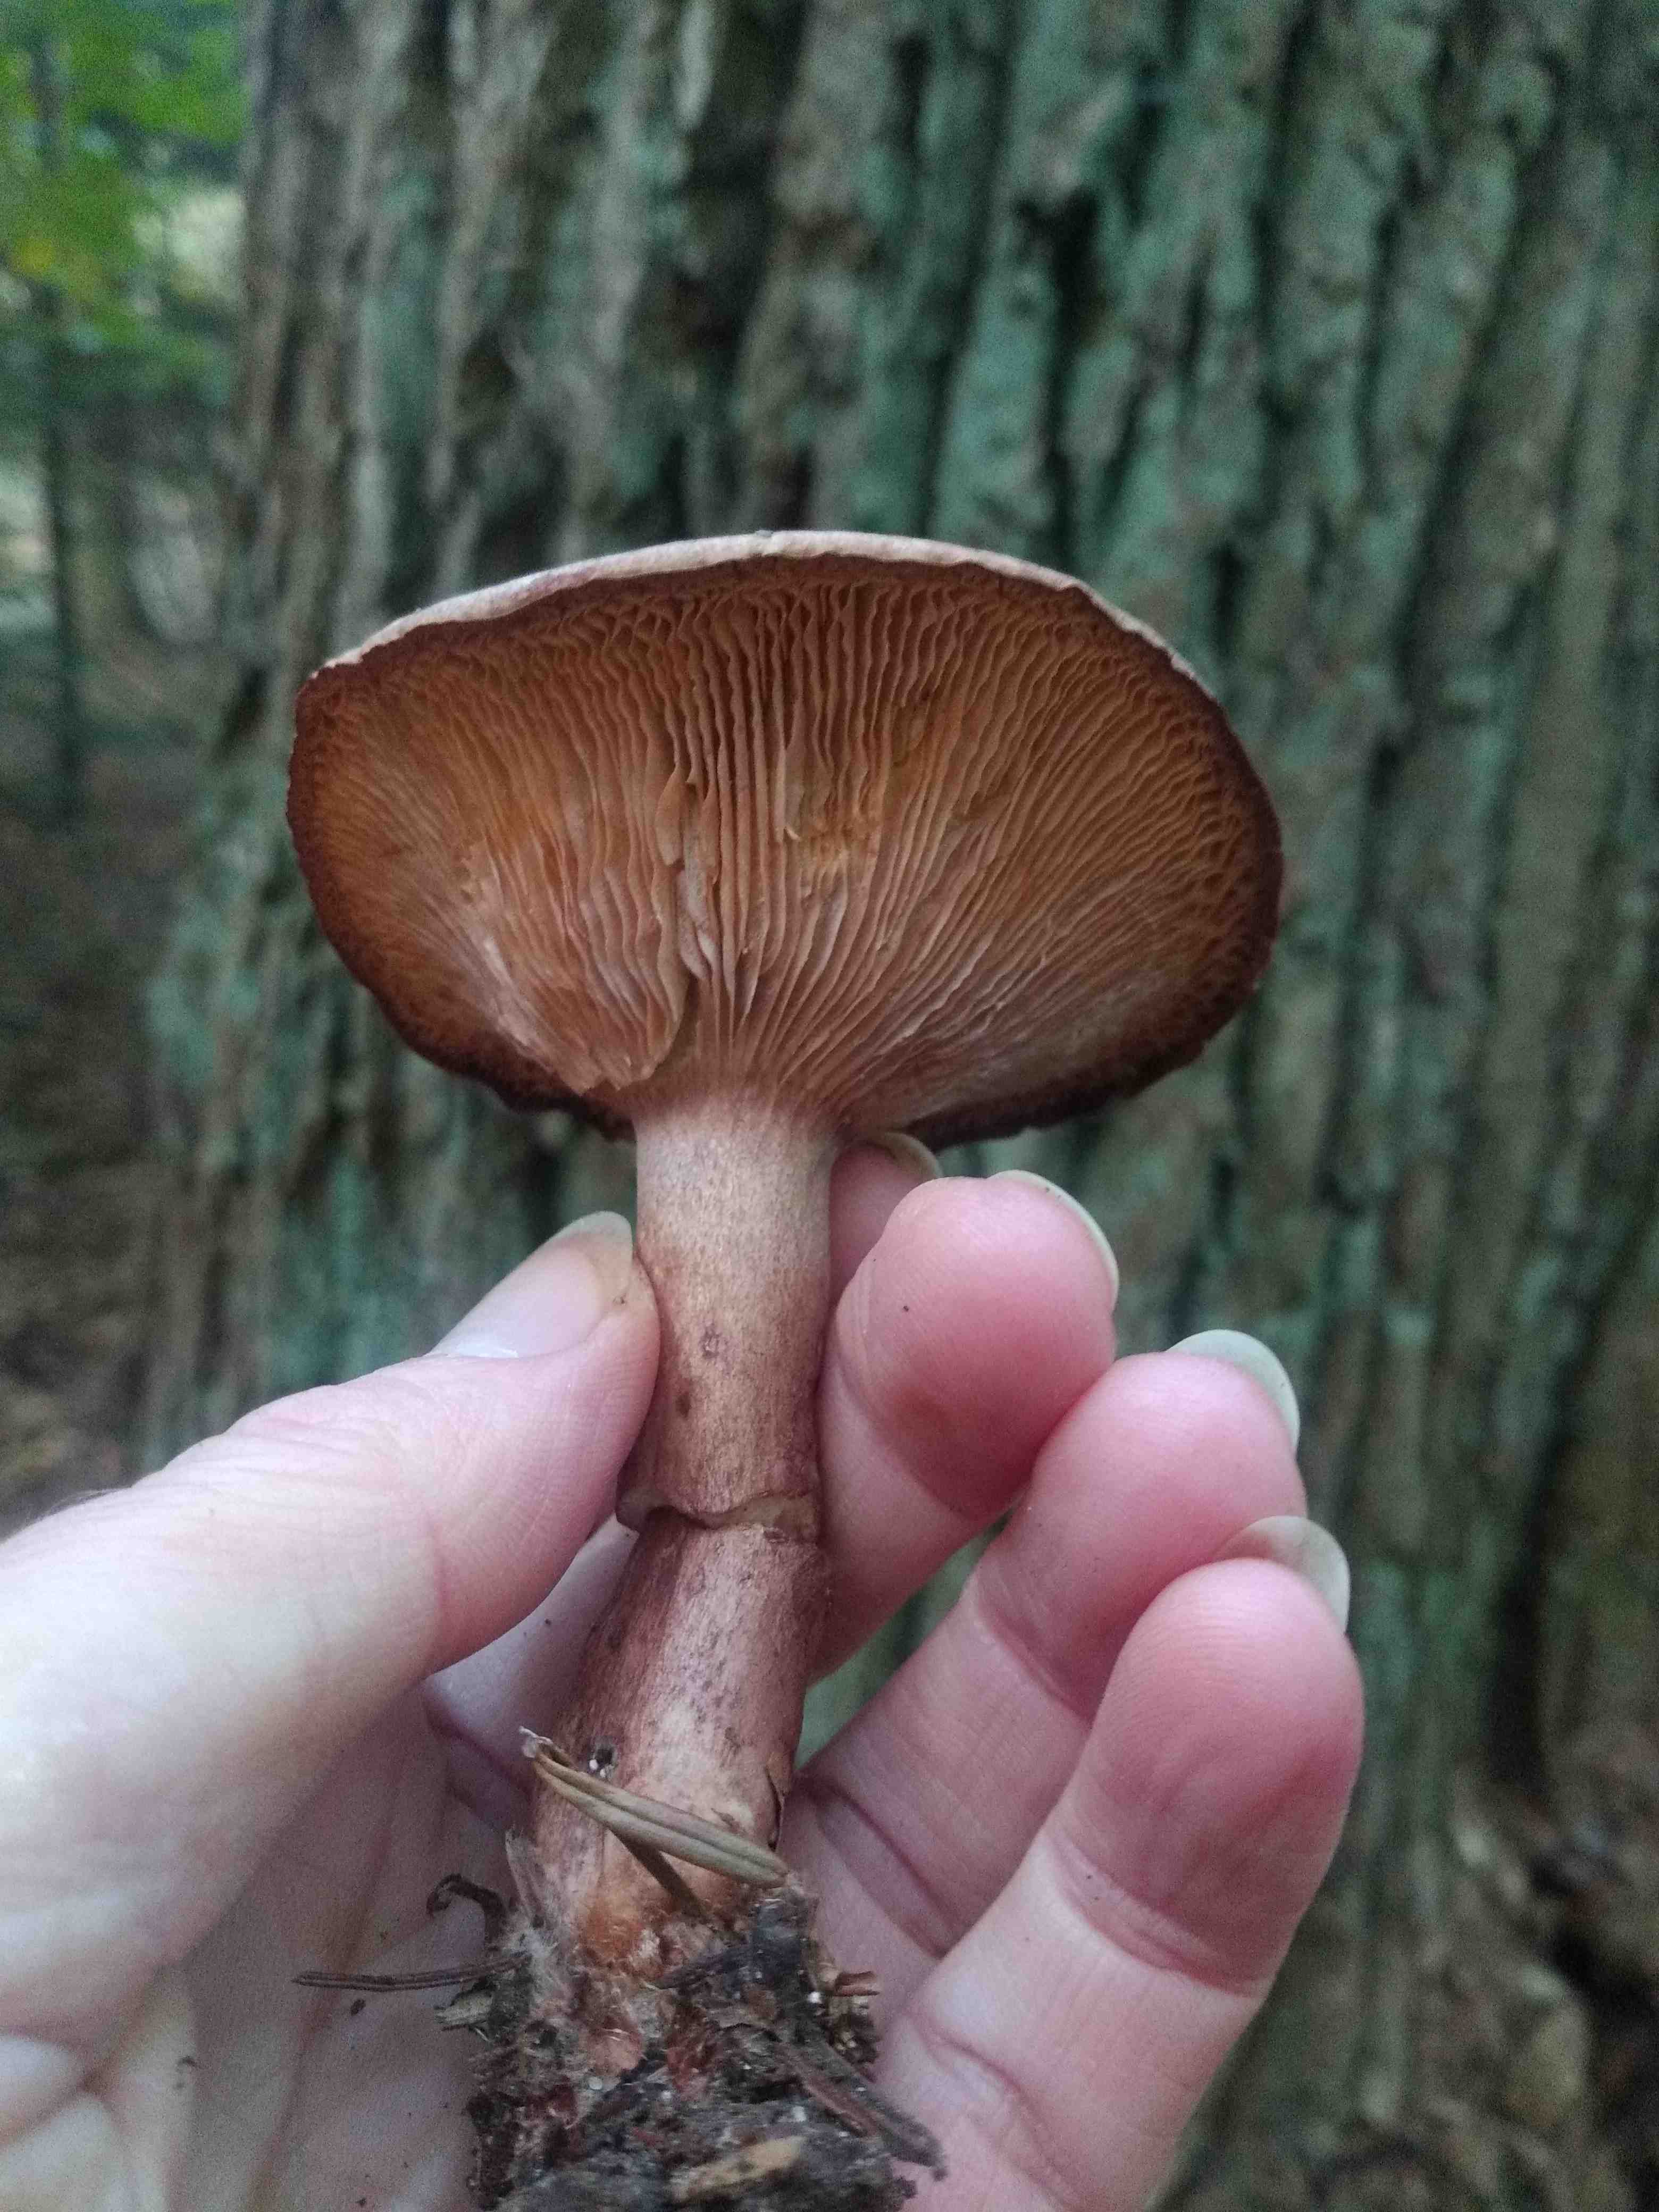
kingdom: Fungi
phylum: Basidiomycota
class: Agaricomycetes
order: Russulales
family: Russulaceae
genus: Lactarius
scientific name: Lactarius quietus
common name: ege-mælkehat
